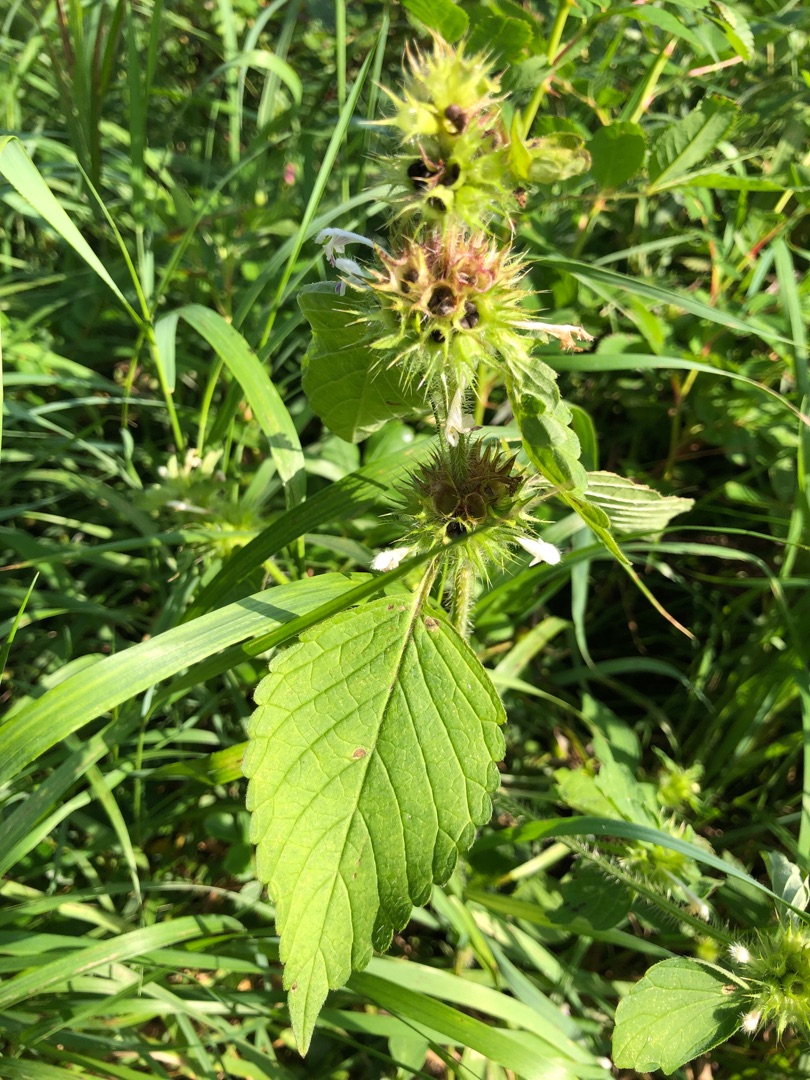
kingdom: Plantae
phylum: Tracheophyta
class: Magnoliopsida
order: Lamiales
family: Lamiaceae
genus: Galeopsis
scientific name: Galeopsis
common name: Hanekroslægten
